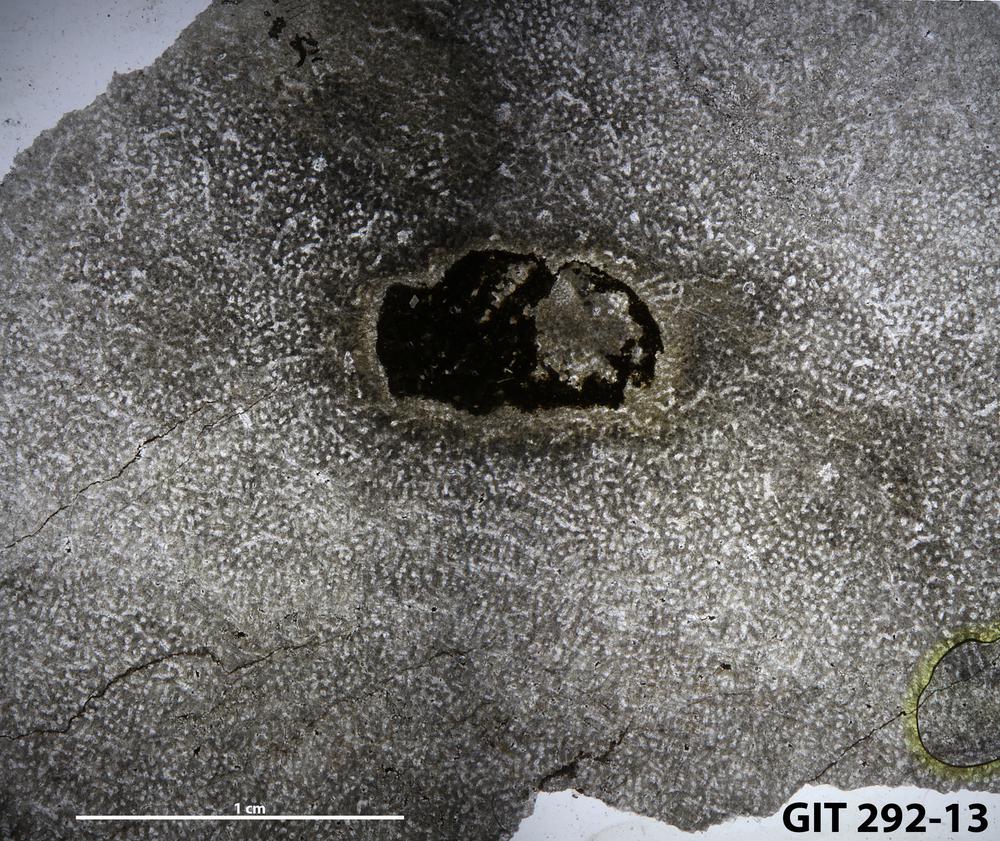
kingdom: Animalia
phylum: Porifera
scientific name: Porifera
